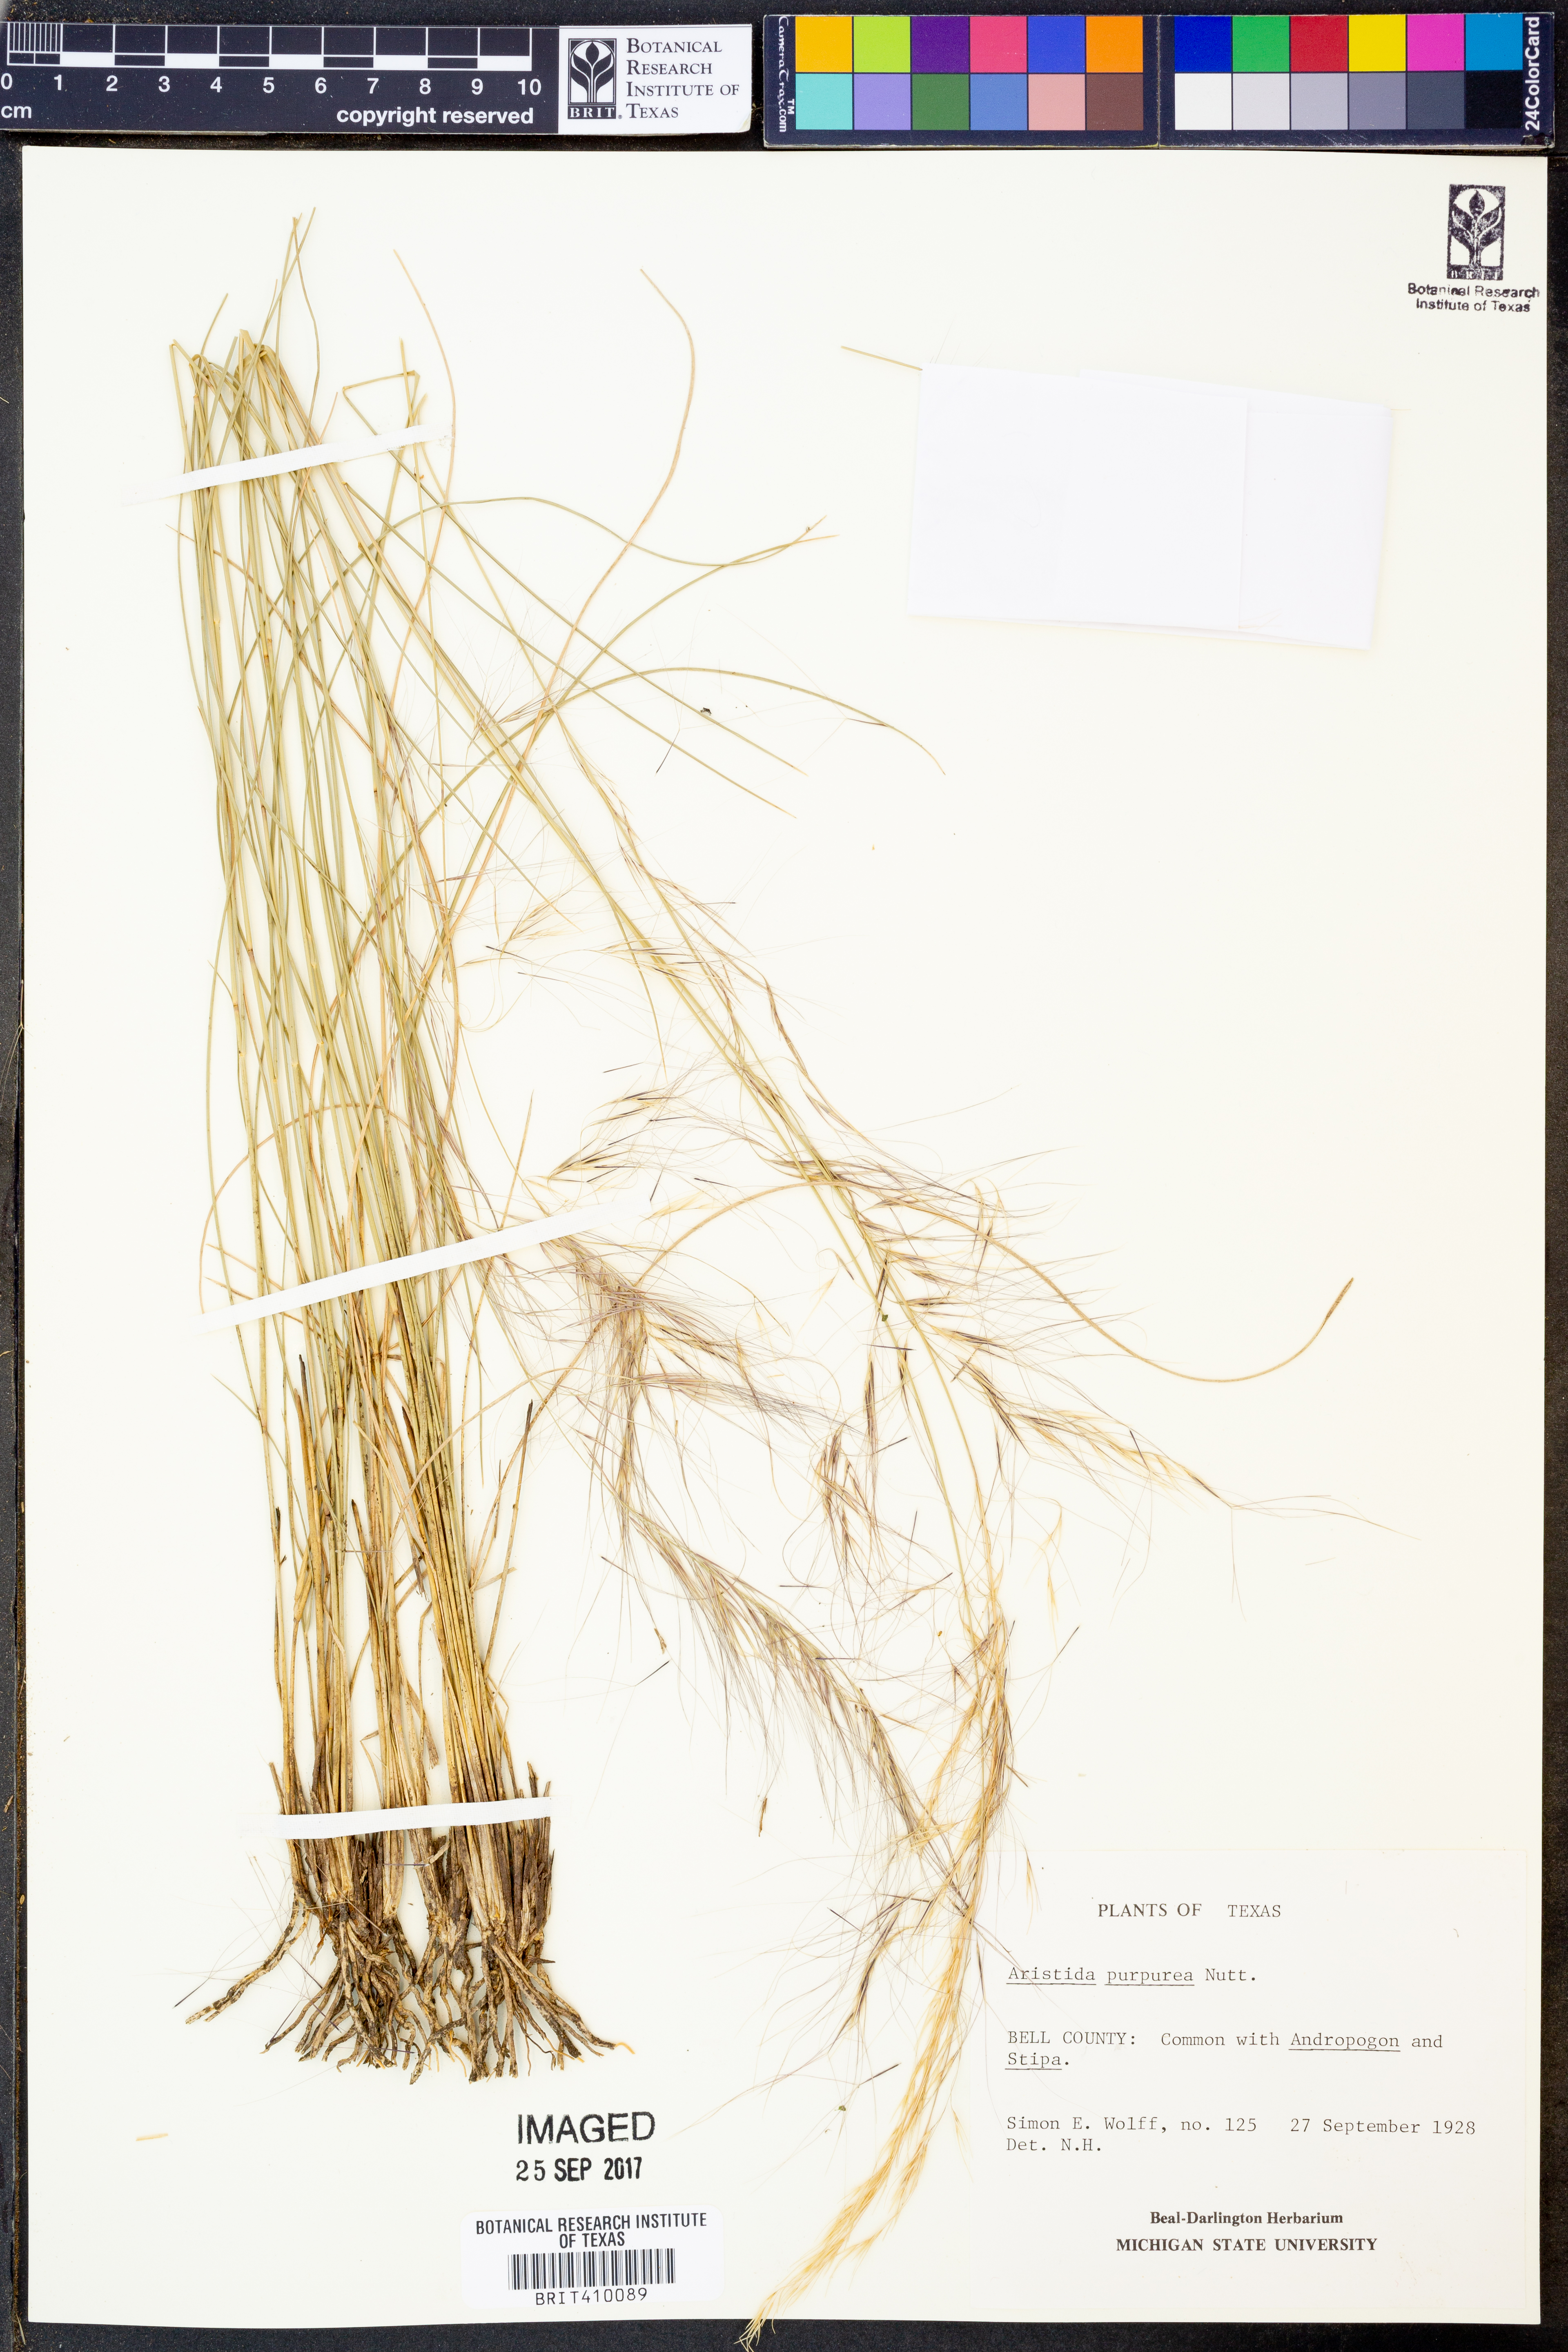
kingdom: Plantae
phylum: Tracheophyta
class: Liliopsida
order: Poales
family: Poaceae
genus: Aristida
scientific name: Aristida purpurea
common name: Purple threeawn
